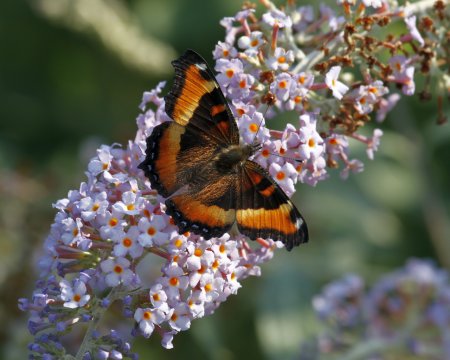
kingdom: Animalia
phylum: Arthropoda
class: Insecta
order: Lepidoptera
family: Nymphalidae
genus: Aglais
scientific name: Aglais milberti
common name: Milbert's Tortoiseshell
